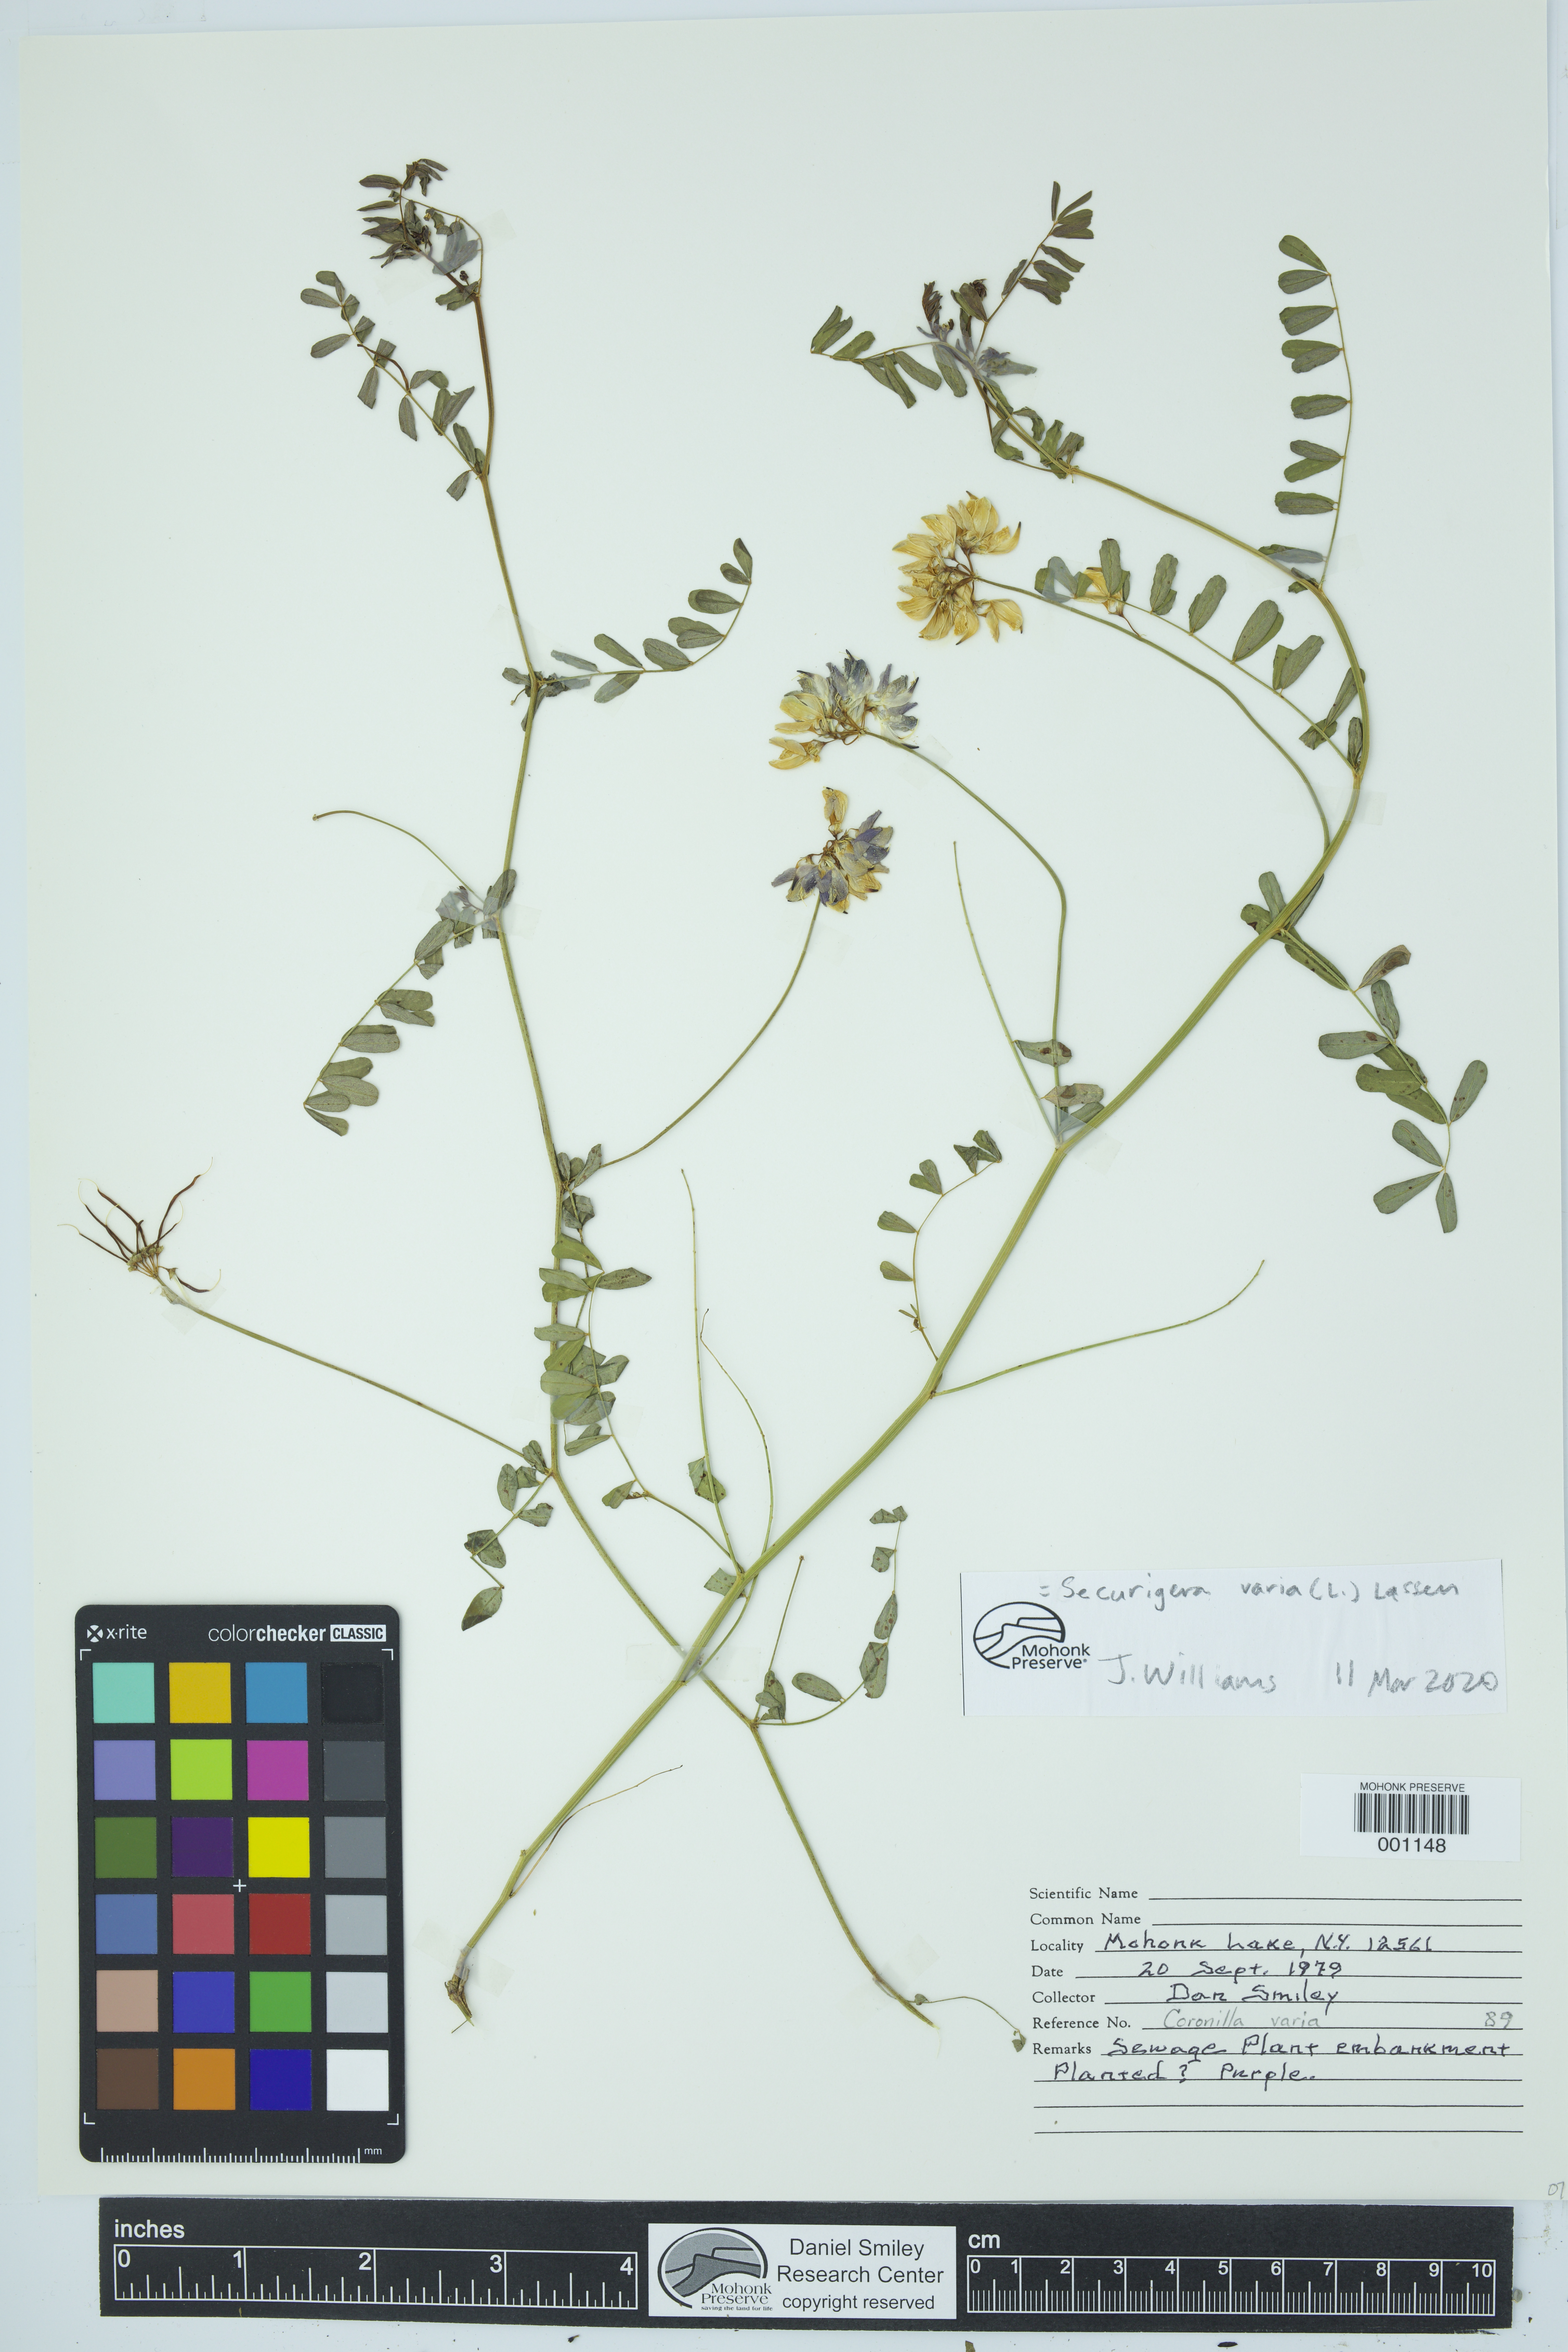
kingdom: Plantae
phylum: Tracheophyta
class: Magnoliopsida
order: Fabales
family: Fabaceae
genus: Coronilla
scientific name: Coronilla varia
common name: Crownvetch
